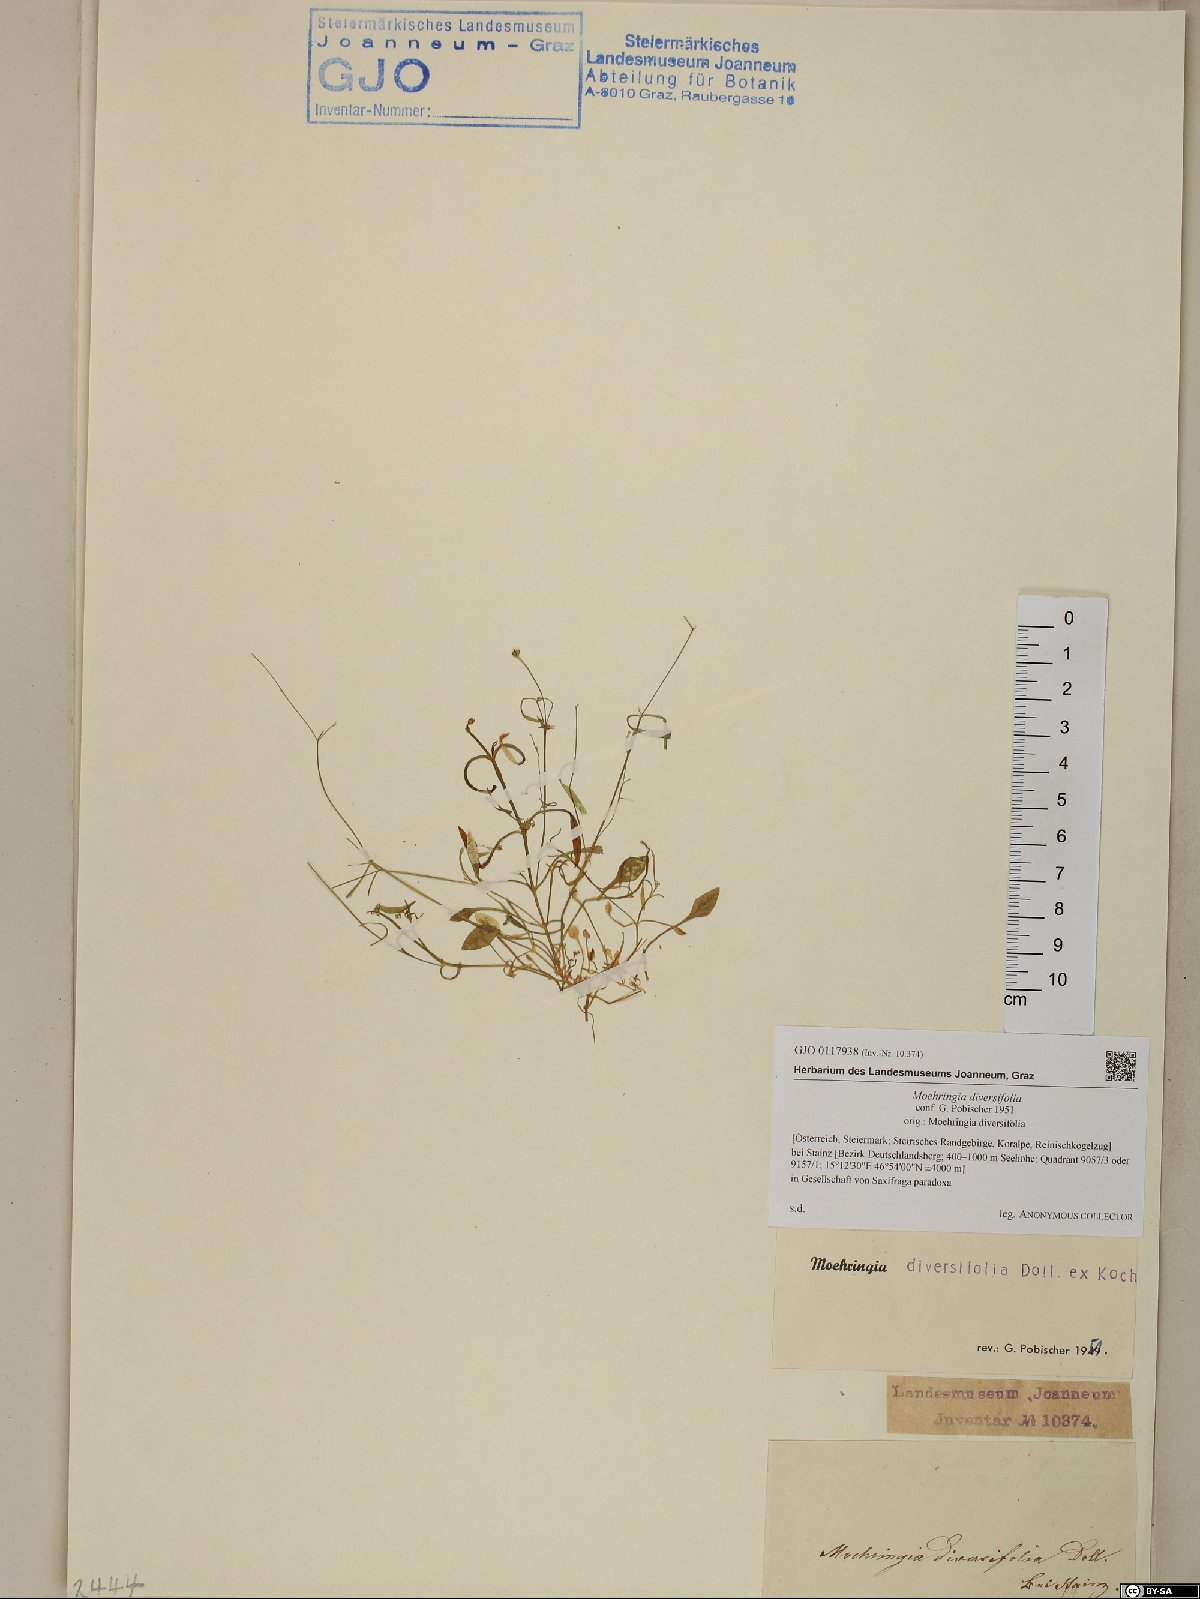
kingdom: Plantae
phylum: Tracheophyta
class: Magnoliopsida
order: Caryophyllales
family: Caryophyllaceae
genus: Moehringia
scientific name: Moehringia diversifolia
